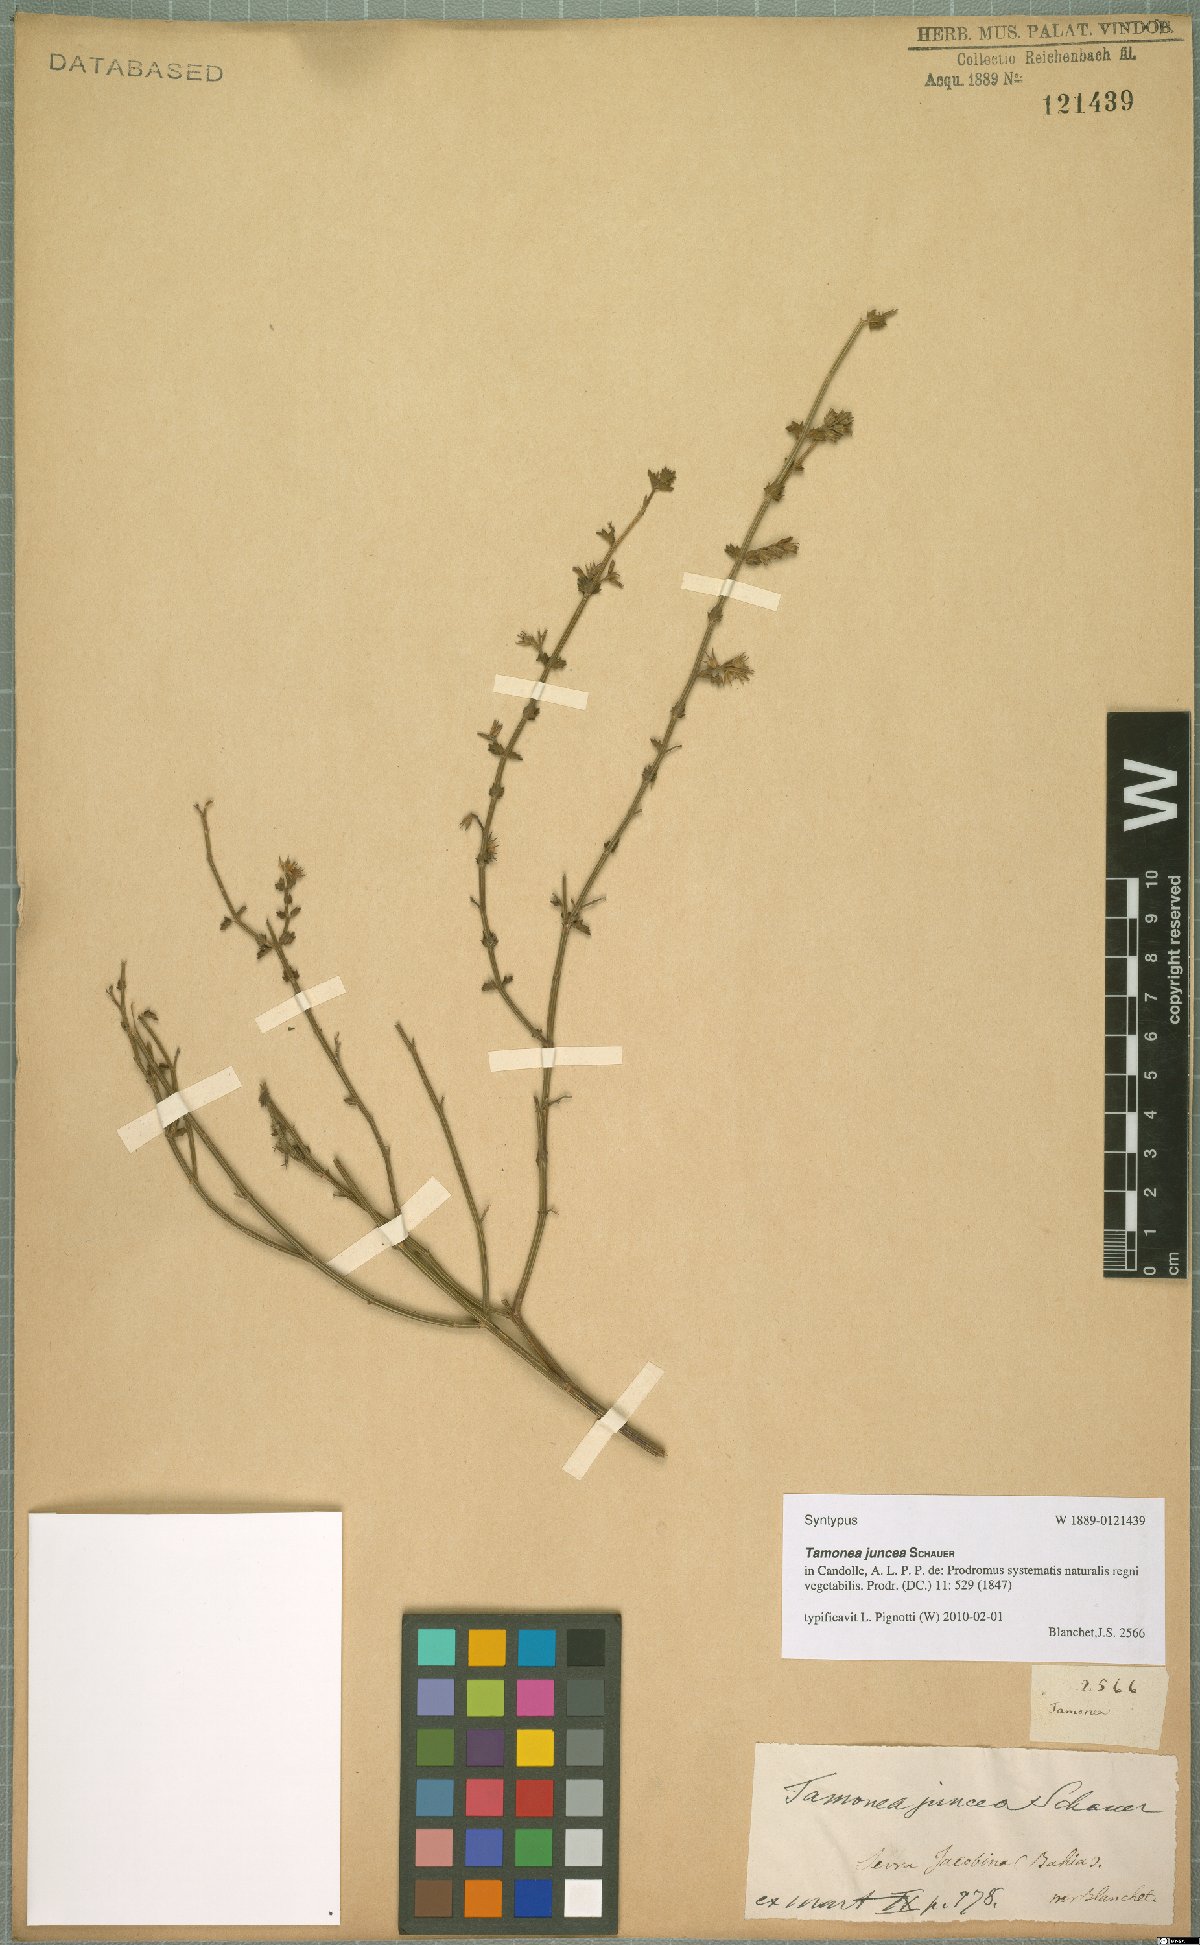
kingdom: Plantae
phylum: Tracheophyta
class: Magnoliopsida
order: Lamiales
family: Verbenaceae
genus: Tamonea
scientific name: Tamonea juncea
